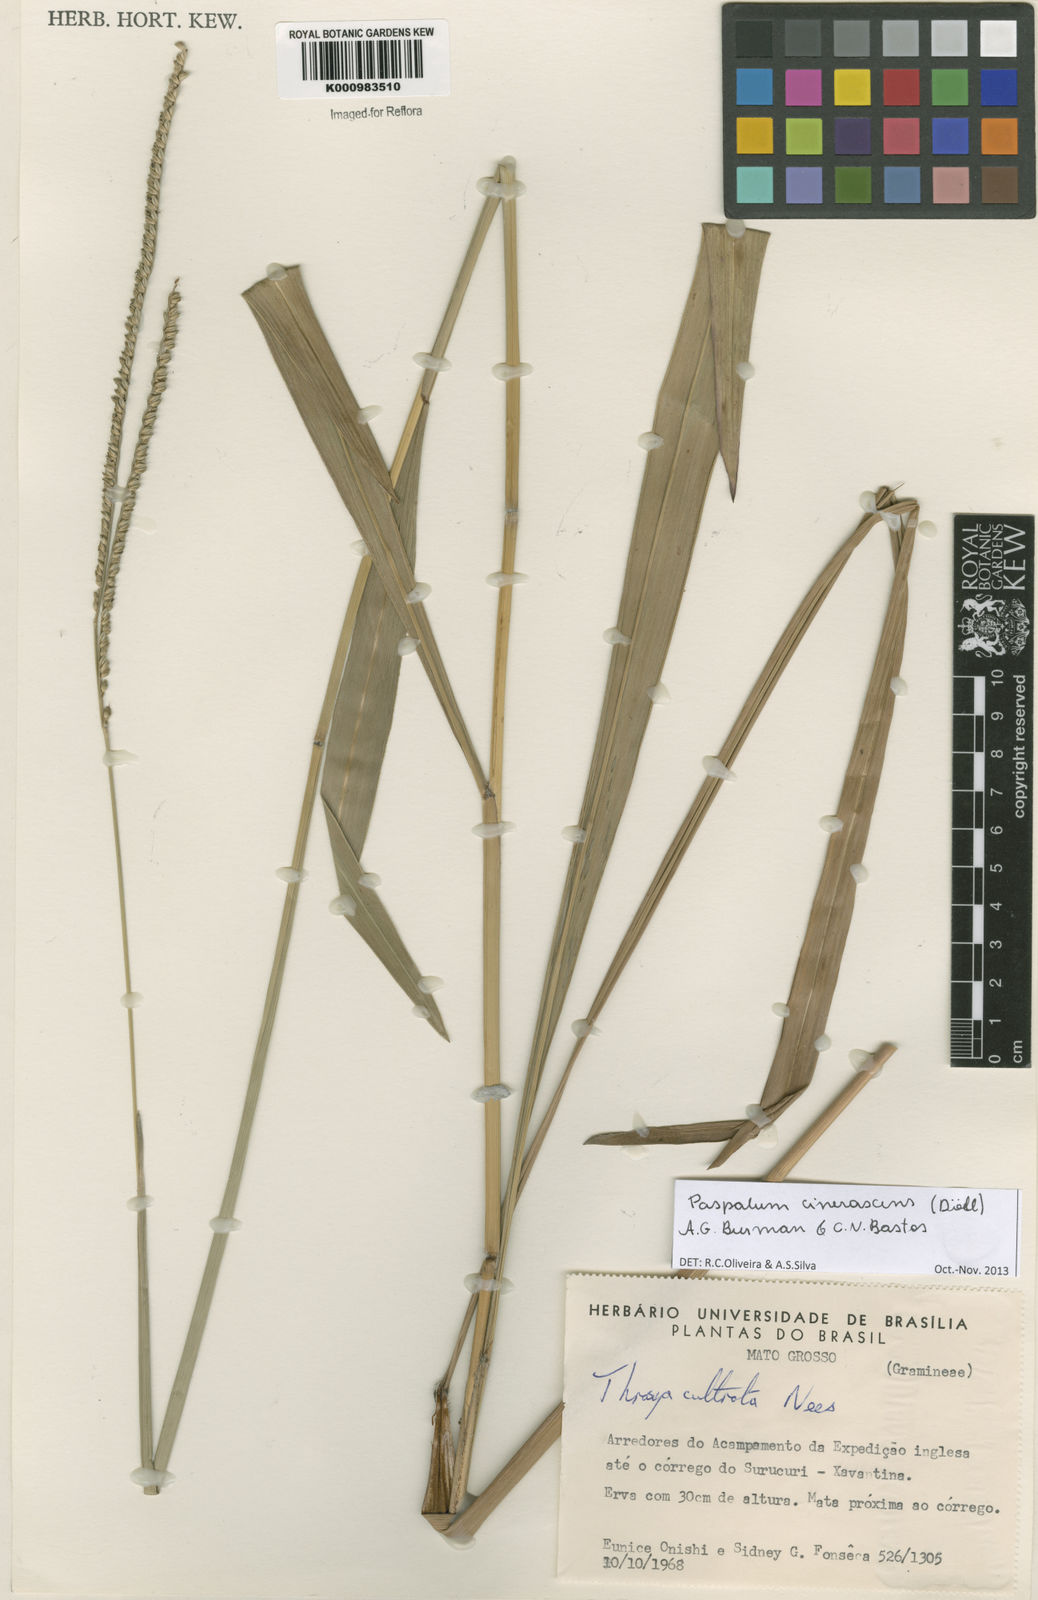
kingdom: Plantae
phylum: Tracheophyta
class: Liliopsida
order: Poales
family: Poaceae
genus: Paspalum
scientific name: Paspalum
